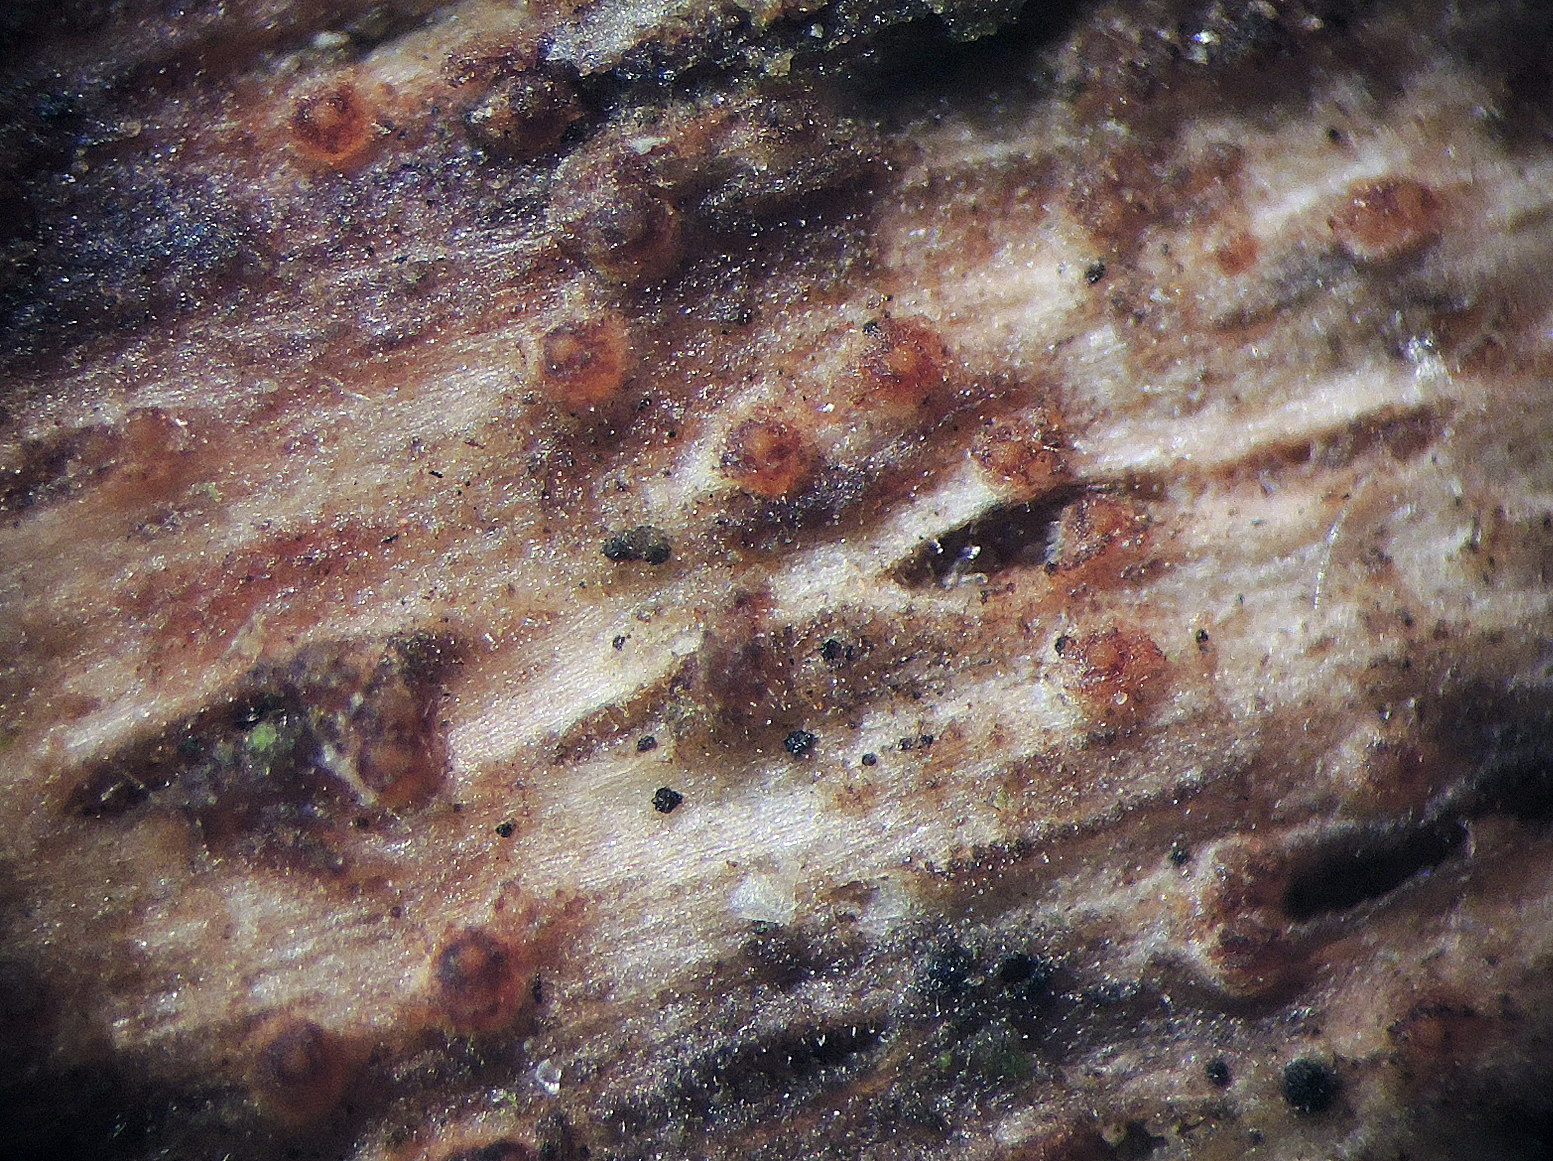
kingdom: Fungi
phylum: Ascomycota
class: Sordariomycetes
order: Hypocreales
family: Bionectriaceae
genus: Nectriella
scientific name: Nectriella atrorubra
